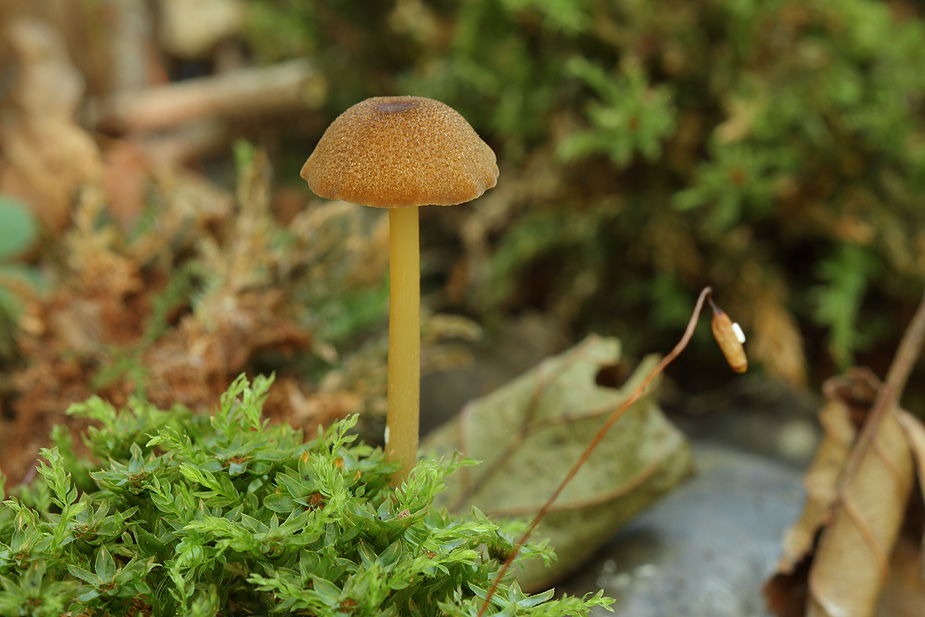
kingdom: Fungi
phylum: Basidiomycota
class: Agaricomycetes
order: Agaricales
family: Entolomataceae
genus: Entoloma
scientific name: Entoloma formosum
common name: brungul rødblad
